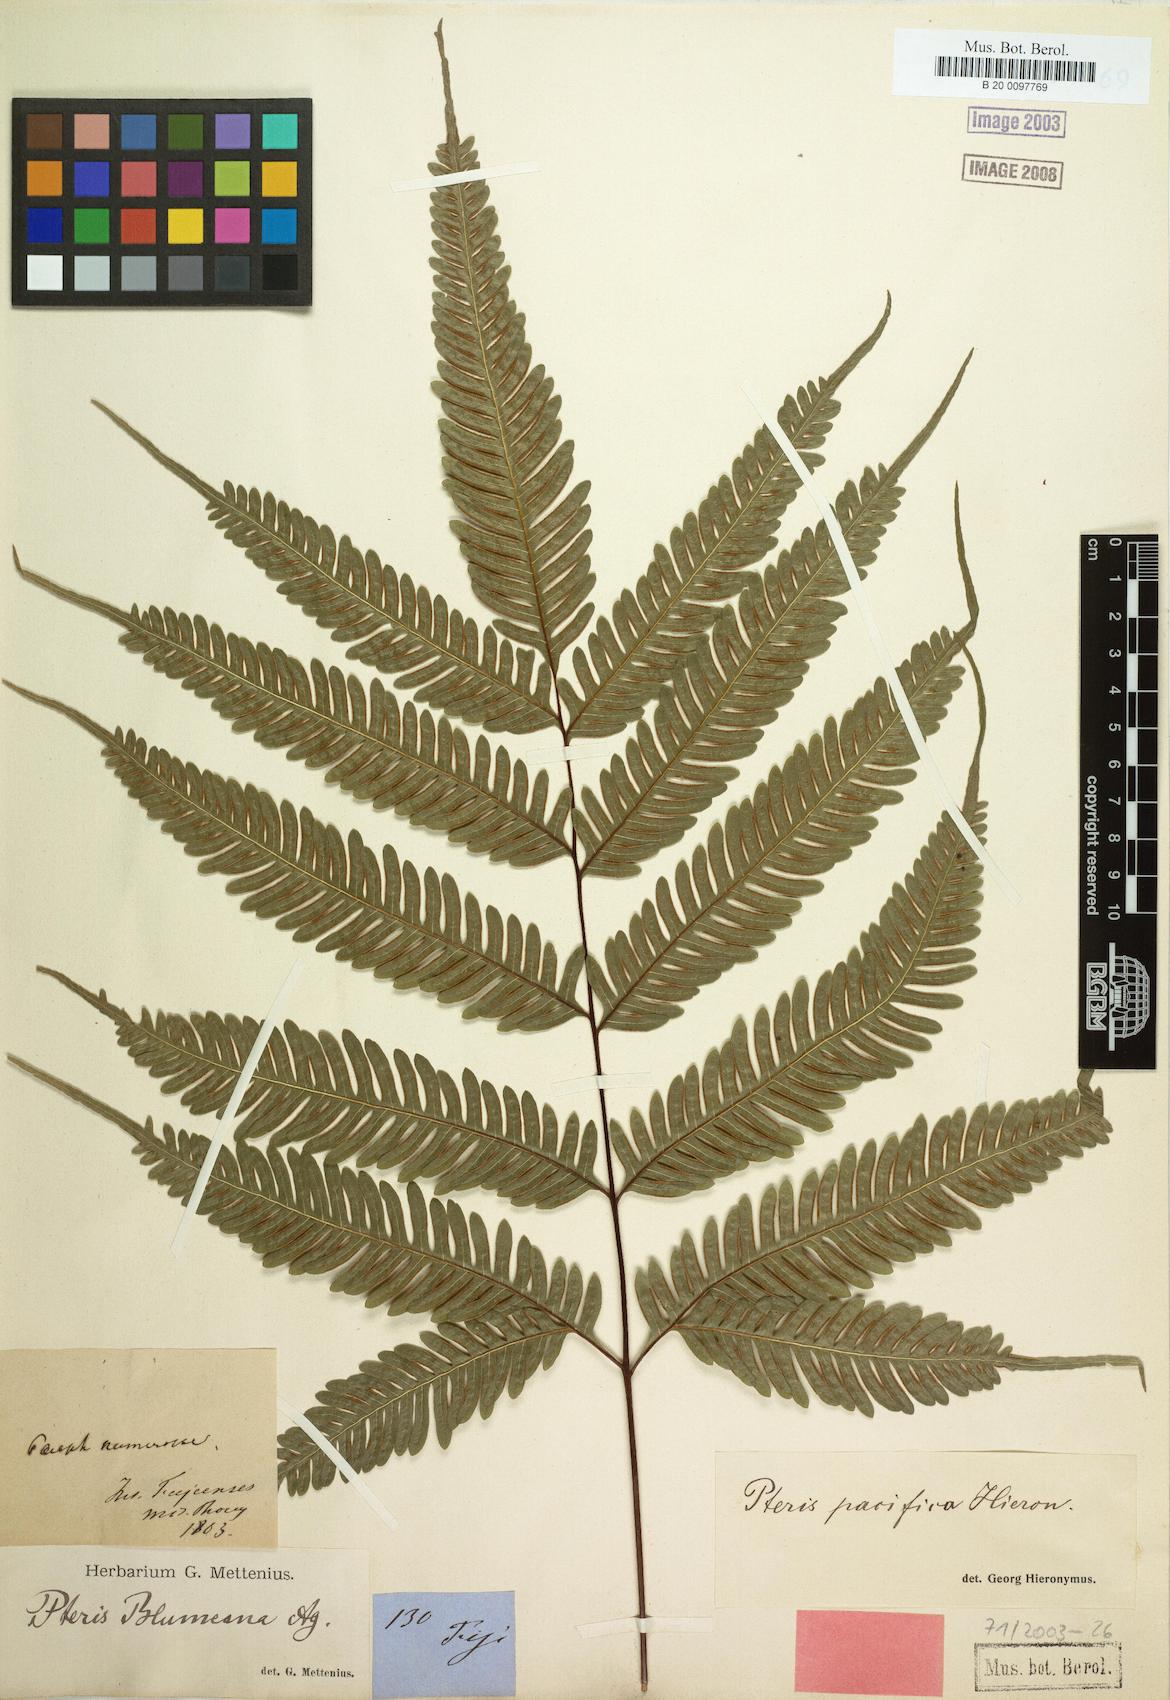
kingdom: Plantae
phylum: Tracheophyta
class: Polypodiopsida
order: Polypodiales
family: Pteridaceae
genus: Pteris
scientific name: Pteris biaurita
